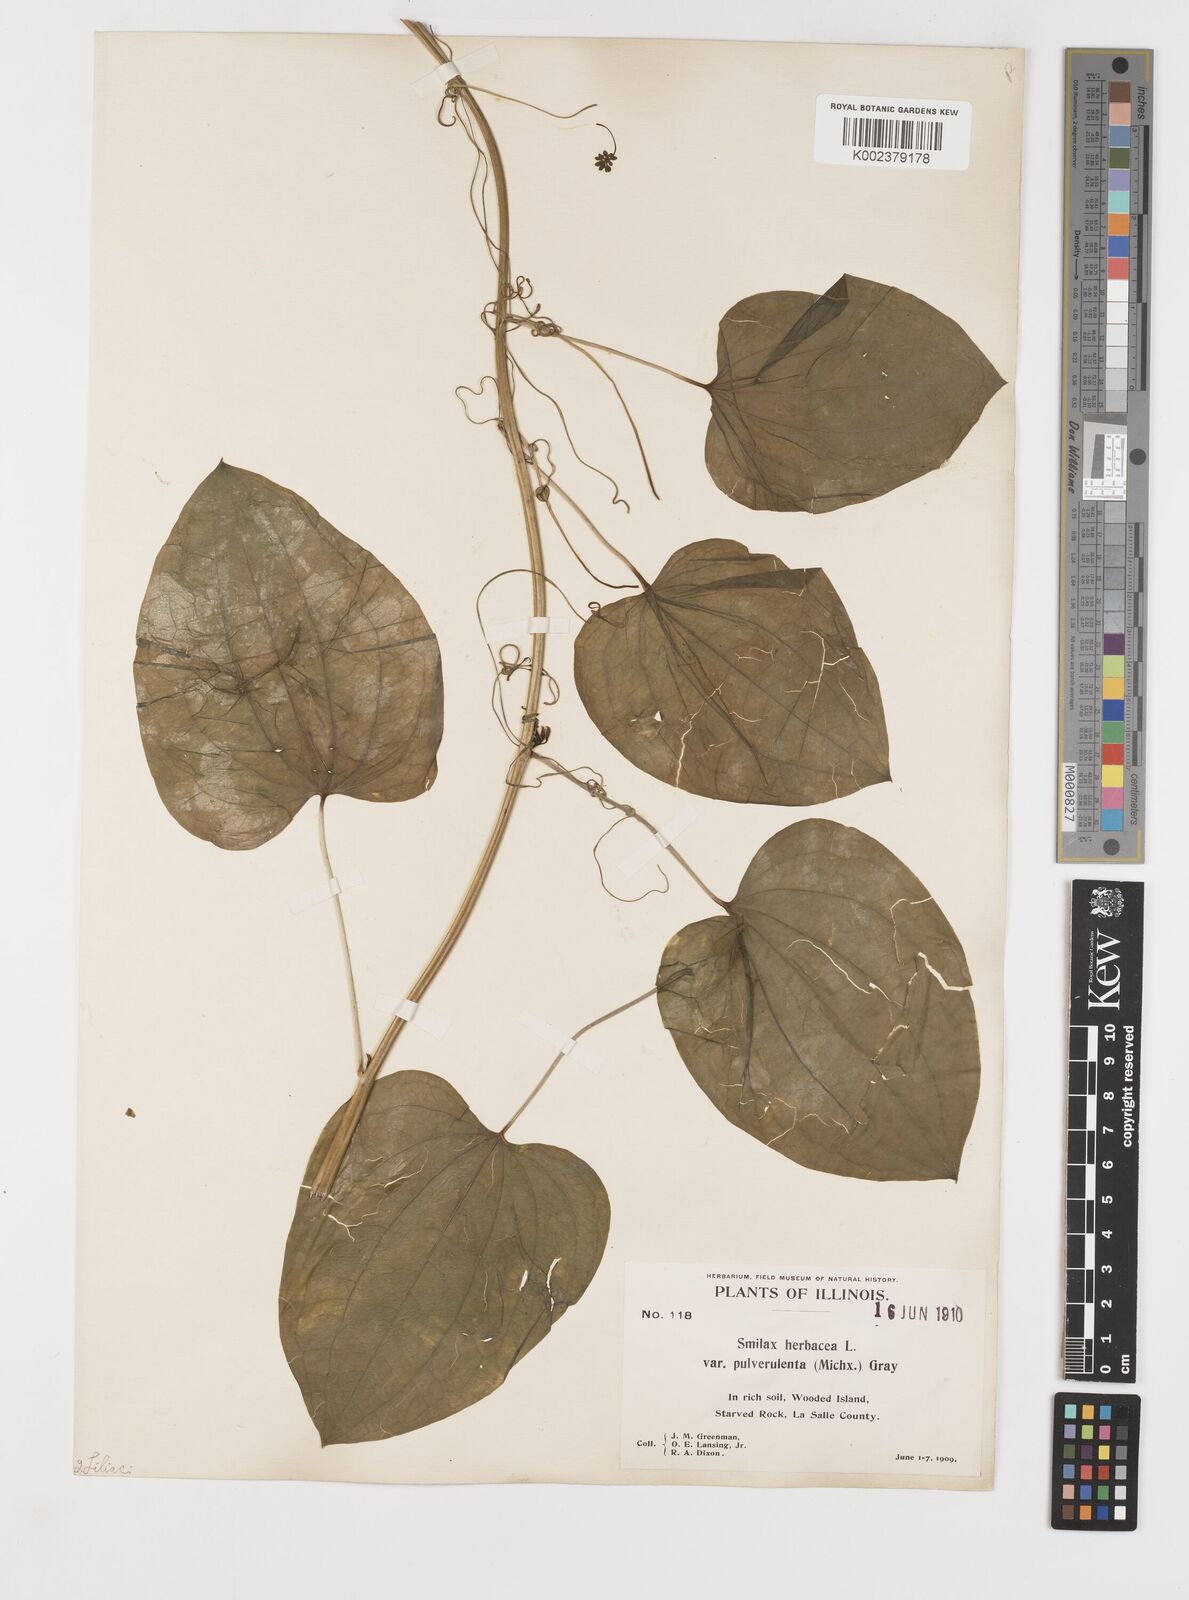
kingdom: Plantae
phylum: Tracheophyta
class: Liliopsida
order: Liliales
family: Smilacaceae
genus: Smilax
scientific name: Smilax herbacea
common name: Jacob's-ladder
